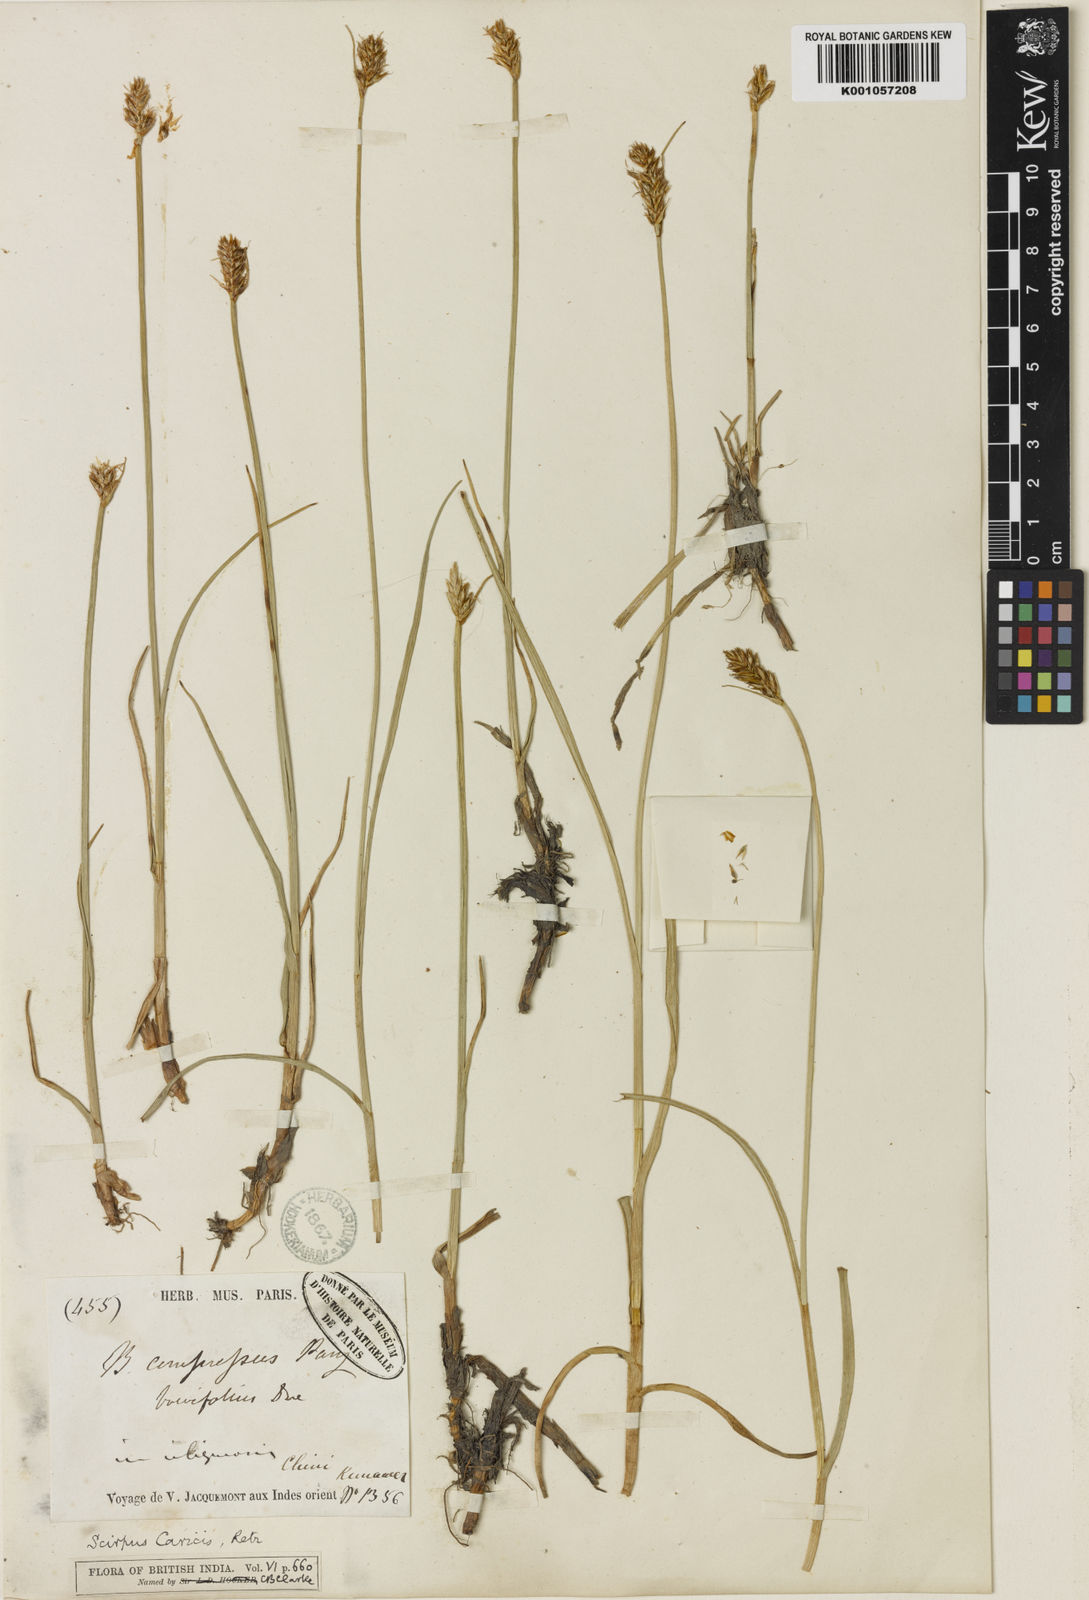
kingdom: Plantae
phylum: Tracheophyta
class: Liliopsida
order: Poales
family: Cyperaceae
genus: Blysmus
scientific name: Blysmus compressus
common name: Flat-sedge
